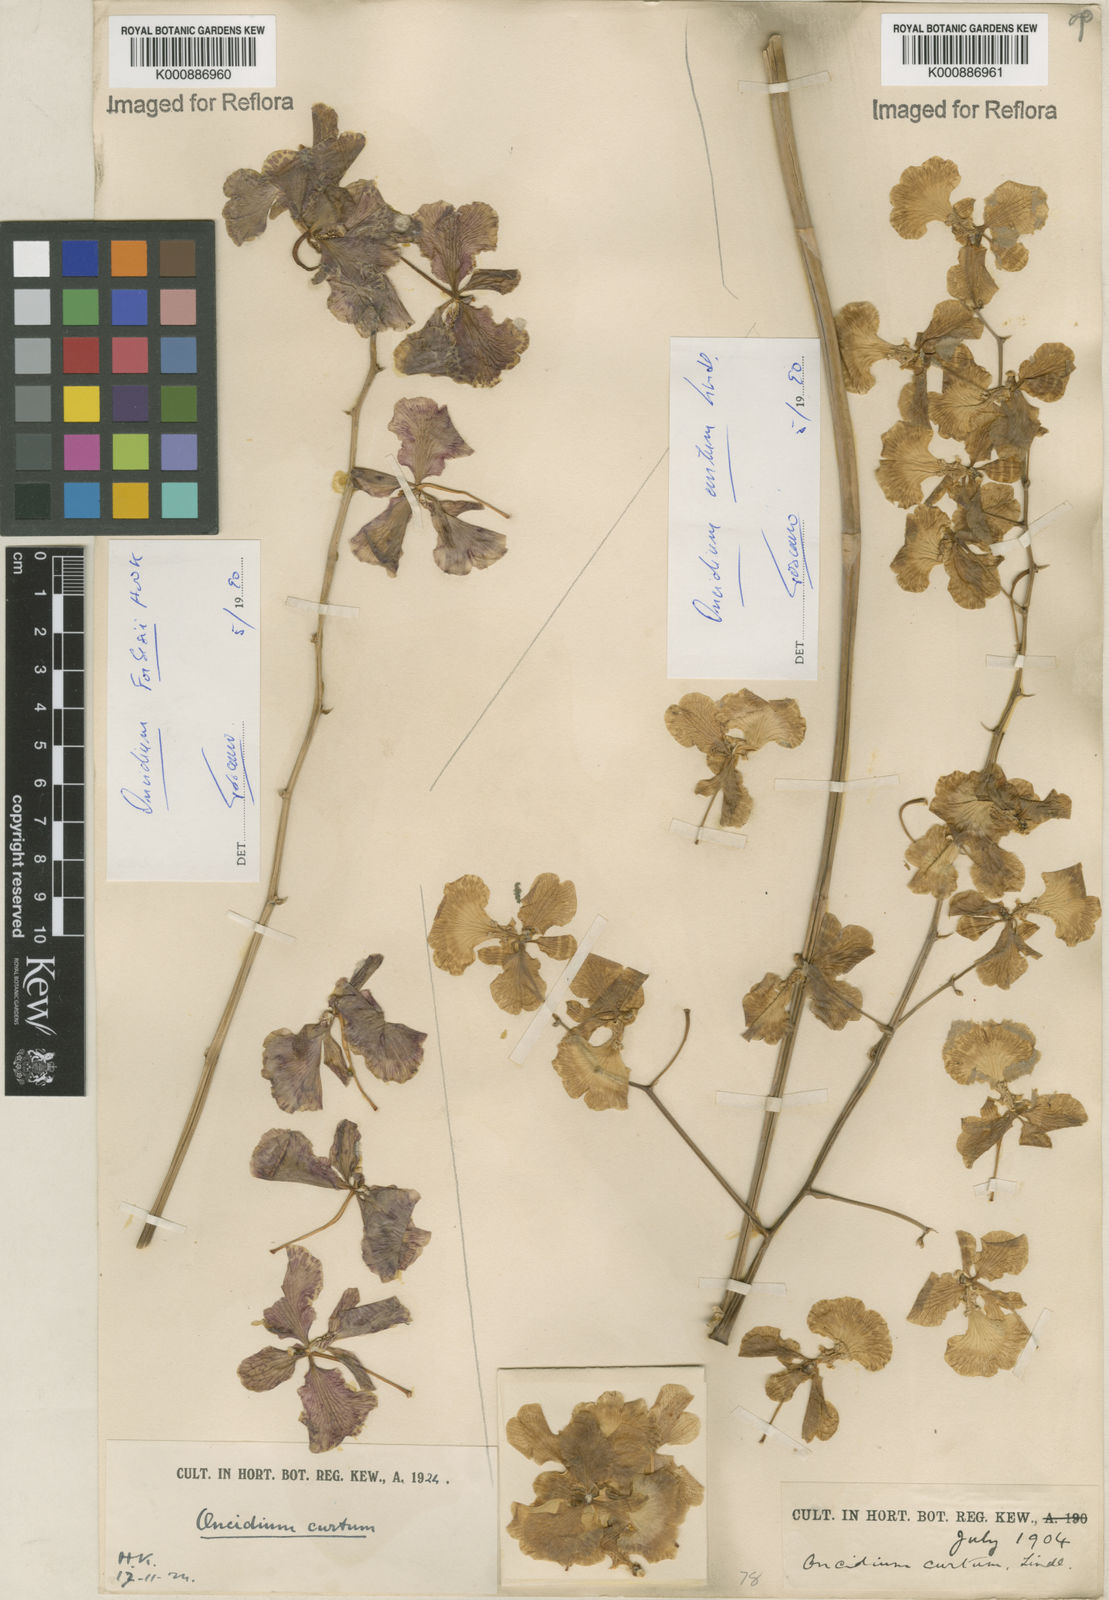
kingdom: Plantae
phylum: Tracheophyta
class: Liliopsida
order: Asparagales
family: Orchidaceae
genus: Gomesa
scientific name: Gomesa forbesii
